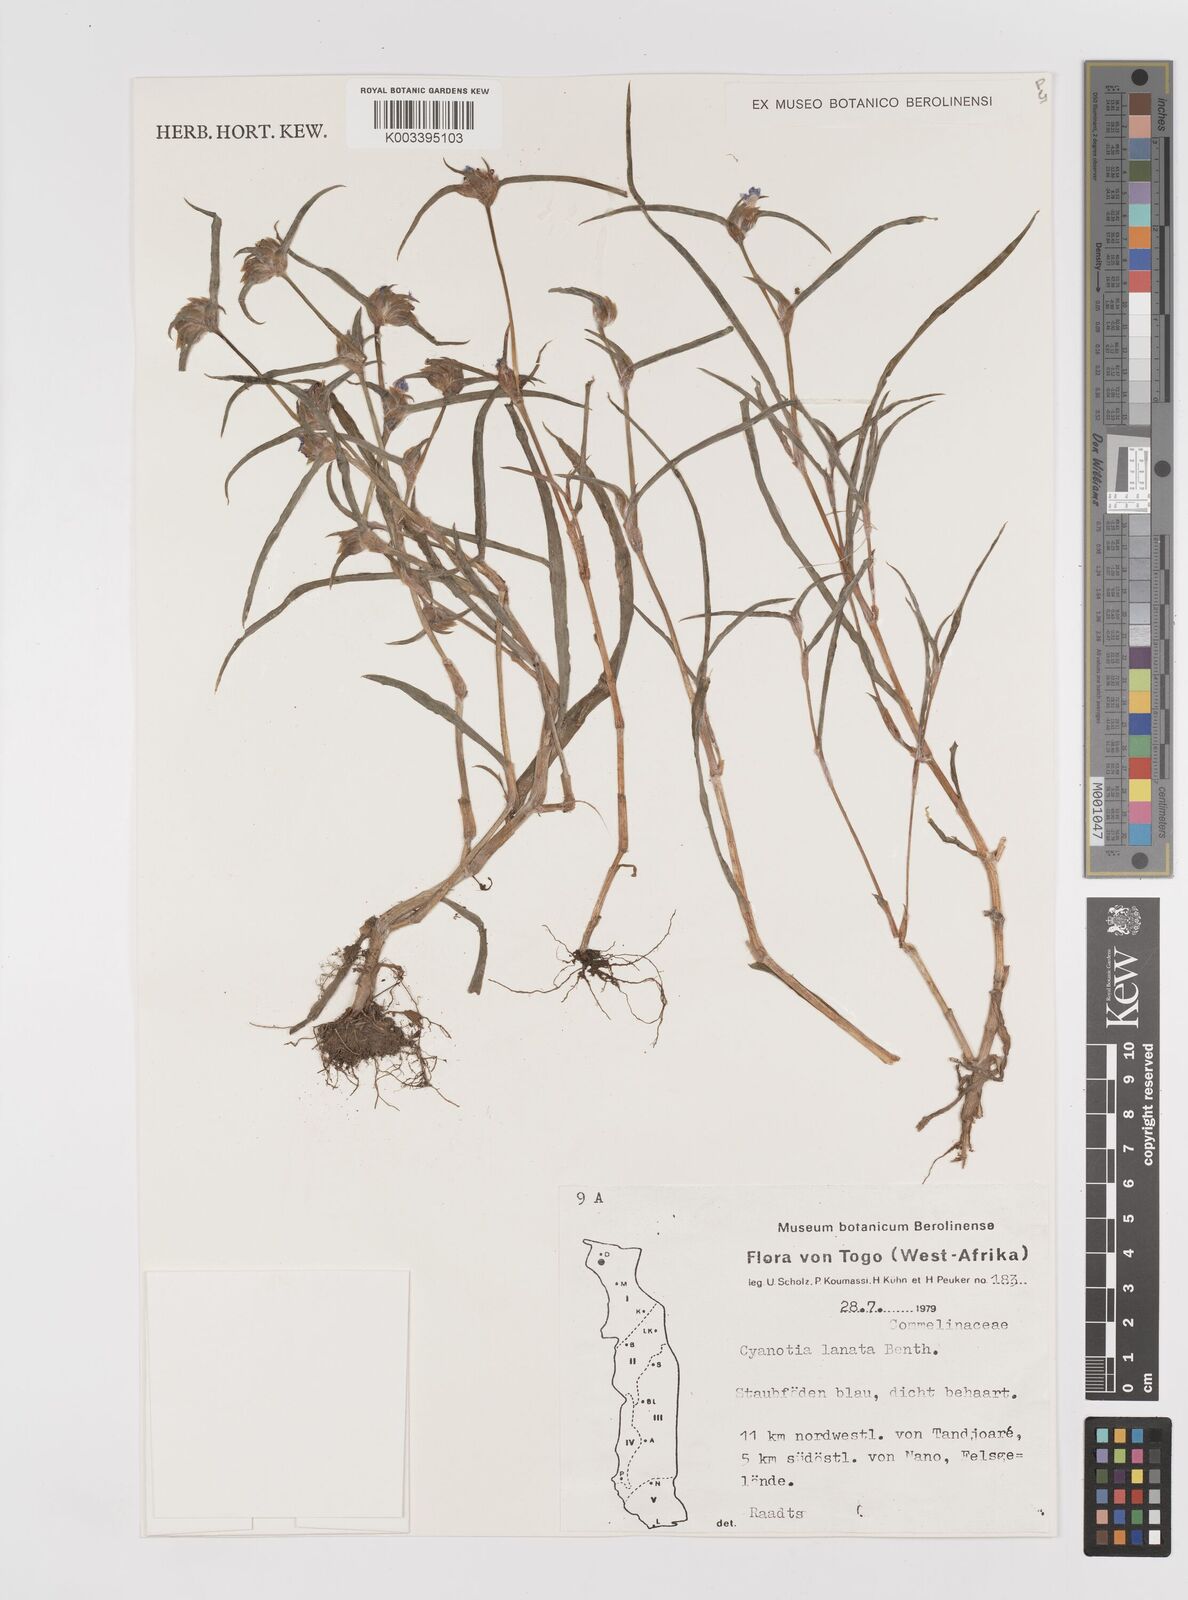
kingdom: Plantae
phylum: Tracheophyta
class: Liliopsida
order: Commelinales
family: Commelinaceae
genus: Cyanotis
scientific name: Cyanotis lanata
